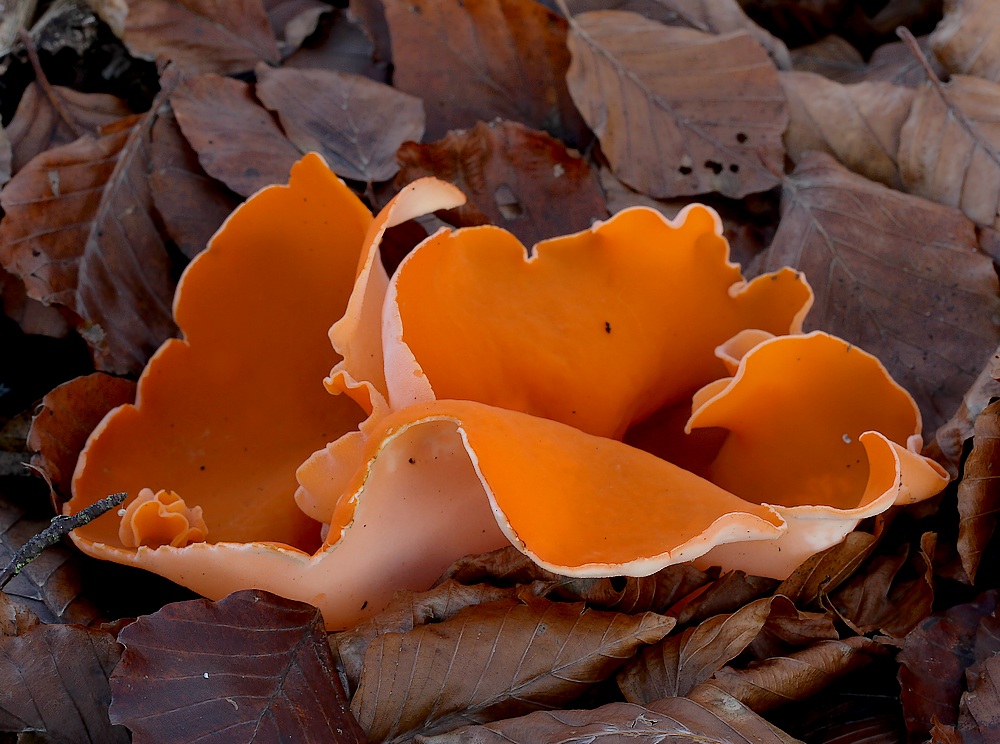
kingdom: Fungi
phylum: Ascomycota
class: Pezizomycetes
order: Pezizales
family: Pyronemataceae
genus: Aleuria
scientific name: Aleuria aurantia
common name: almindelig orangebæger
